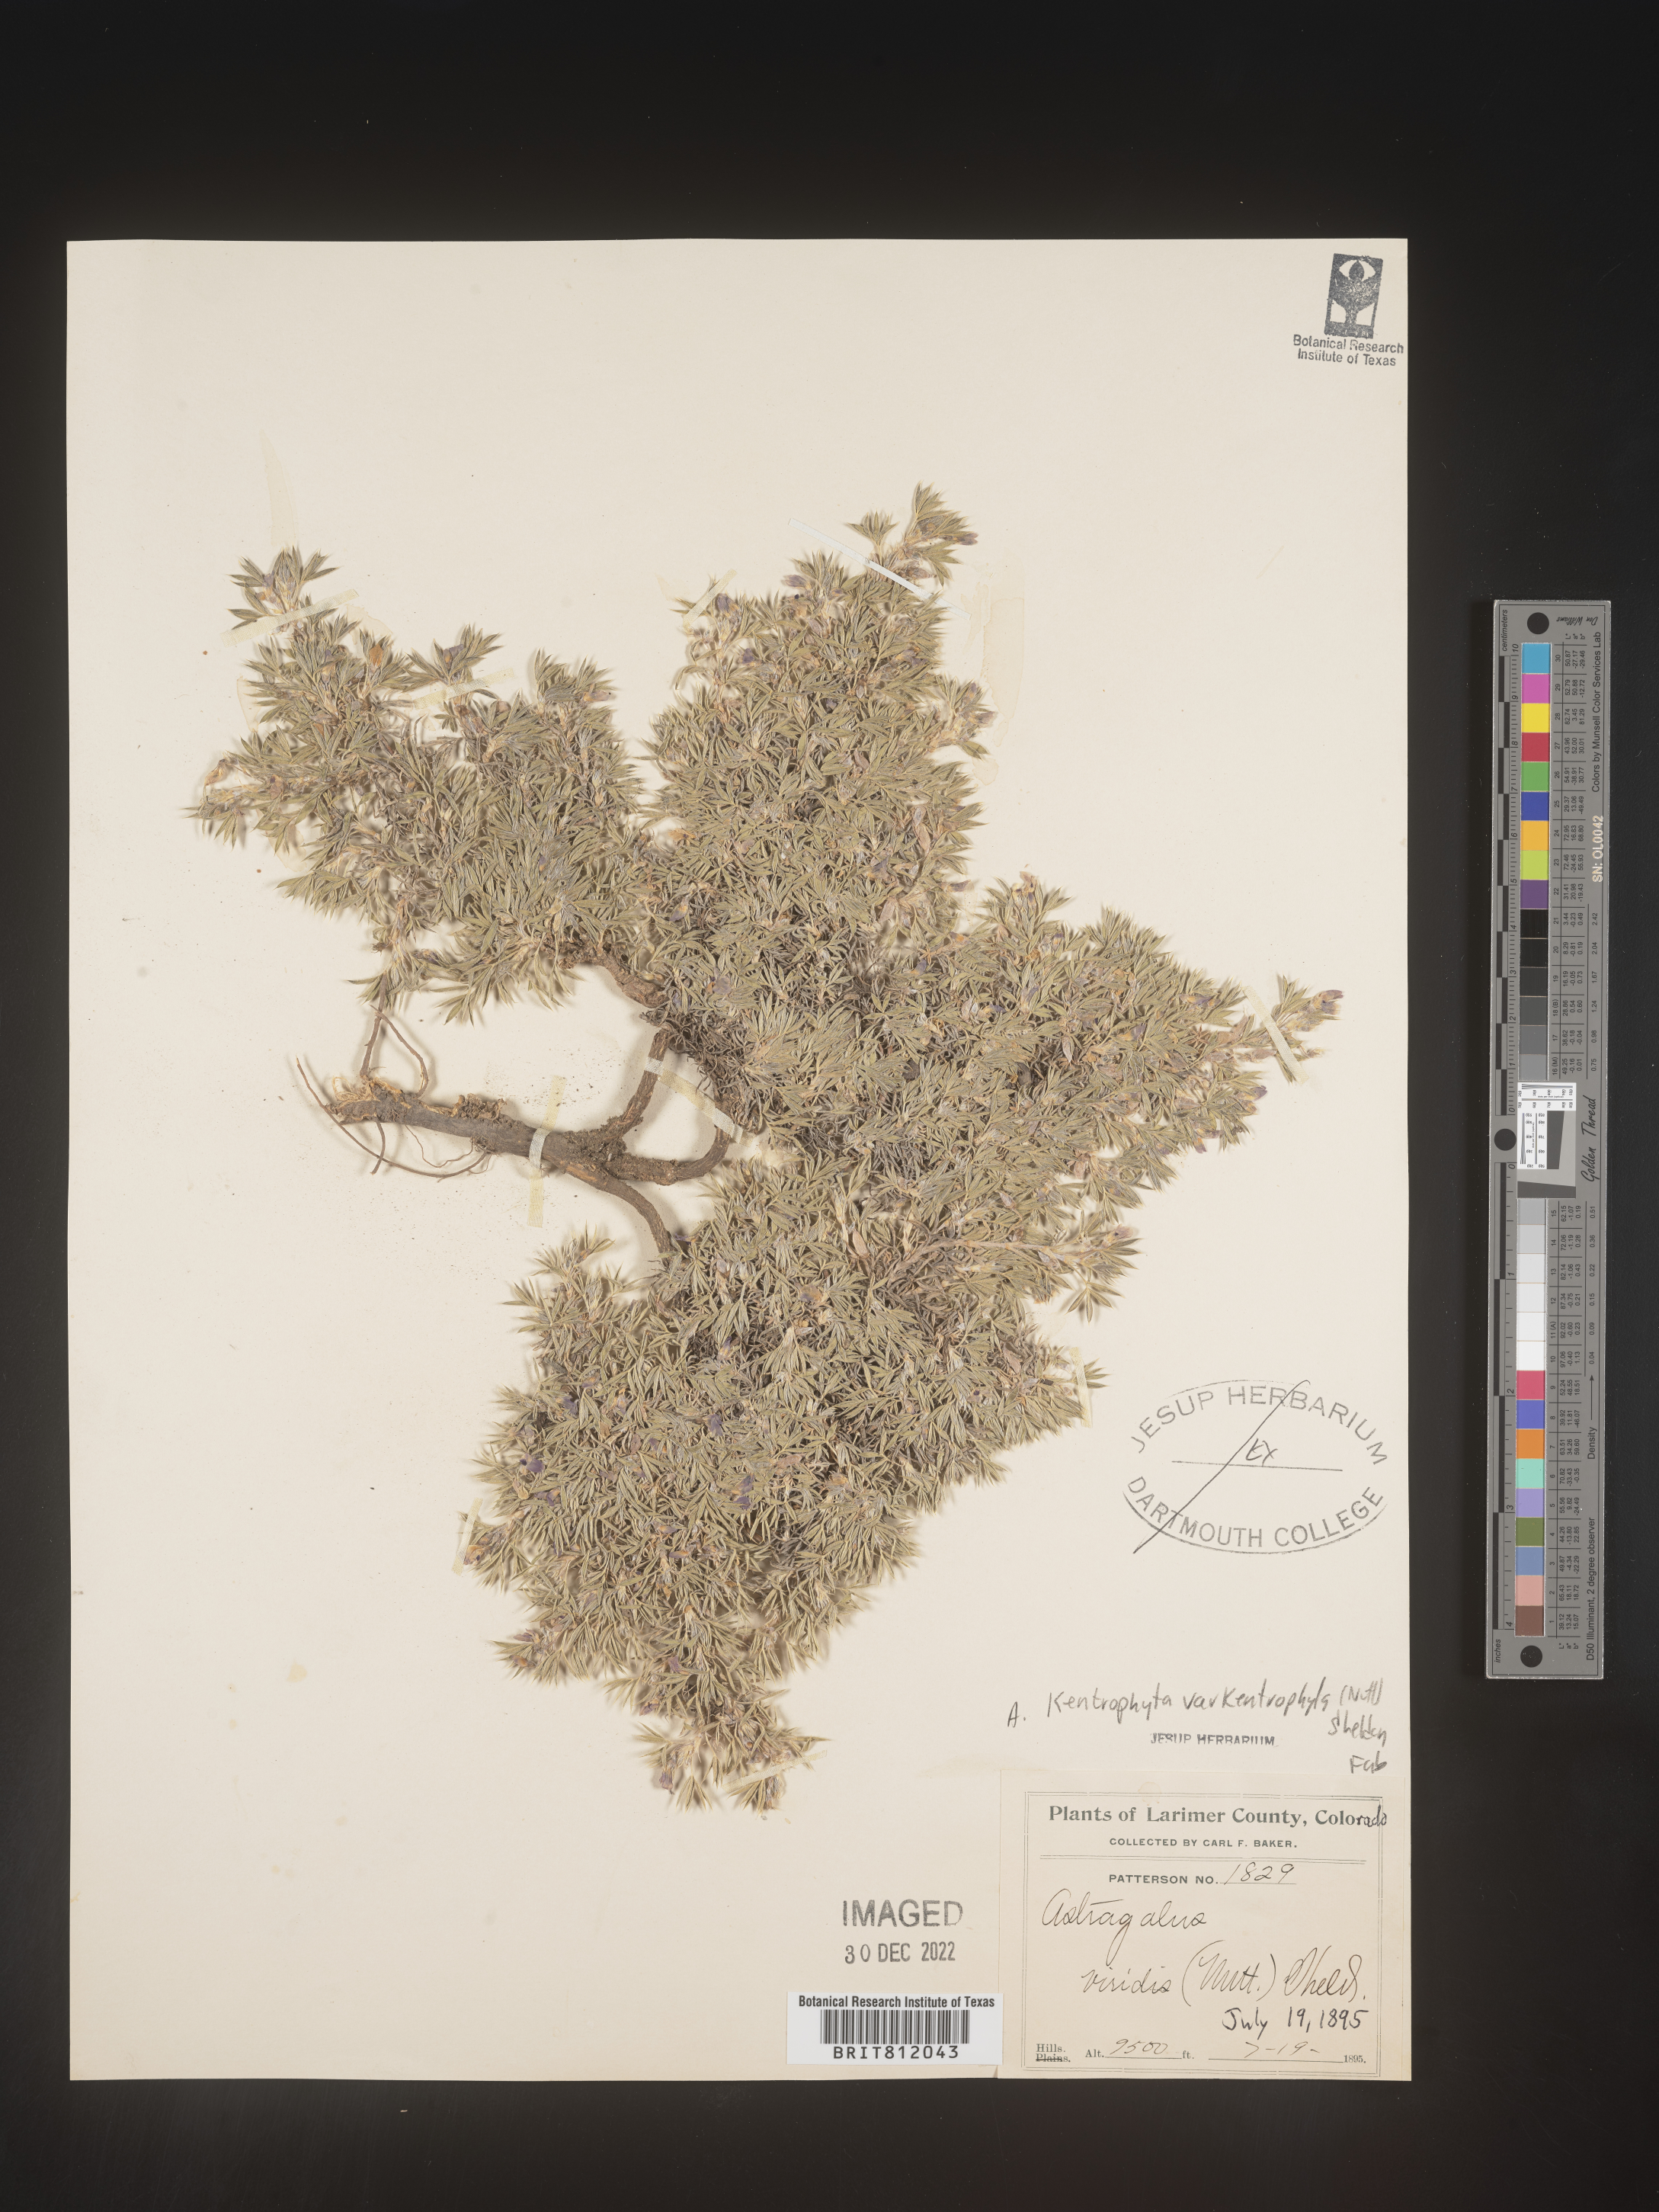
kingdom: Plantae
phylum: Tracheophyta
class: Magnoliopsida
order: Fabales
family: Fabaceae
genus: Astragalus
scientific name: Astragalus kentrophyta
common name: Prickly milk-vetch
